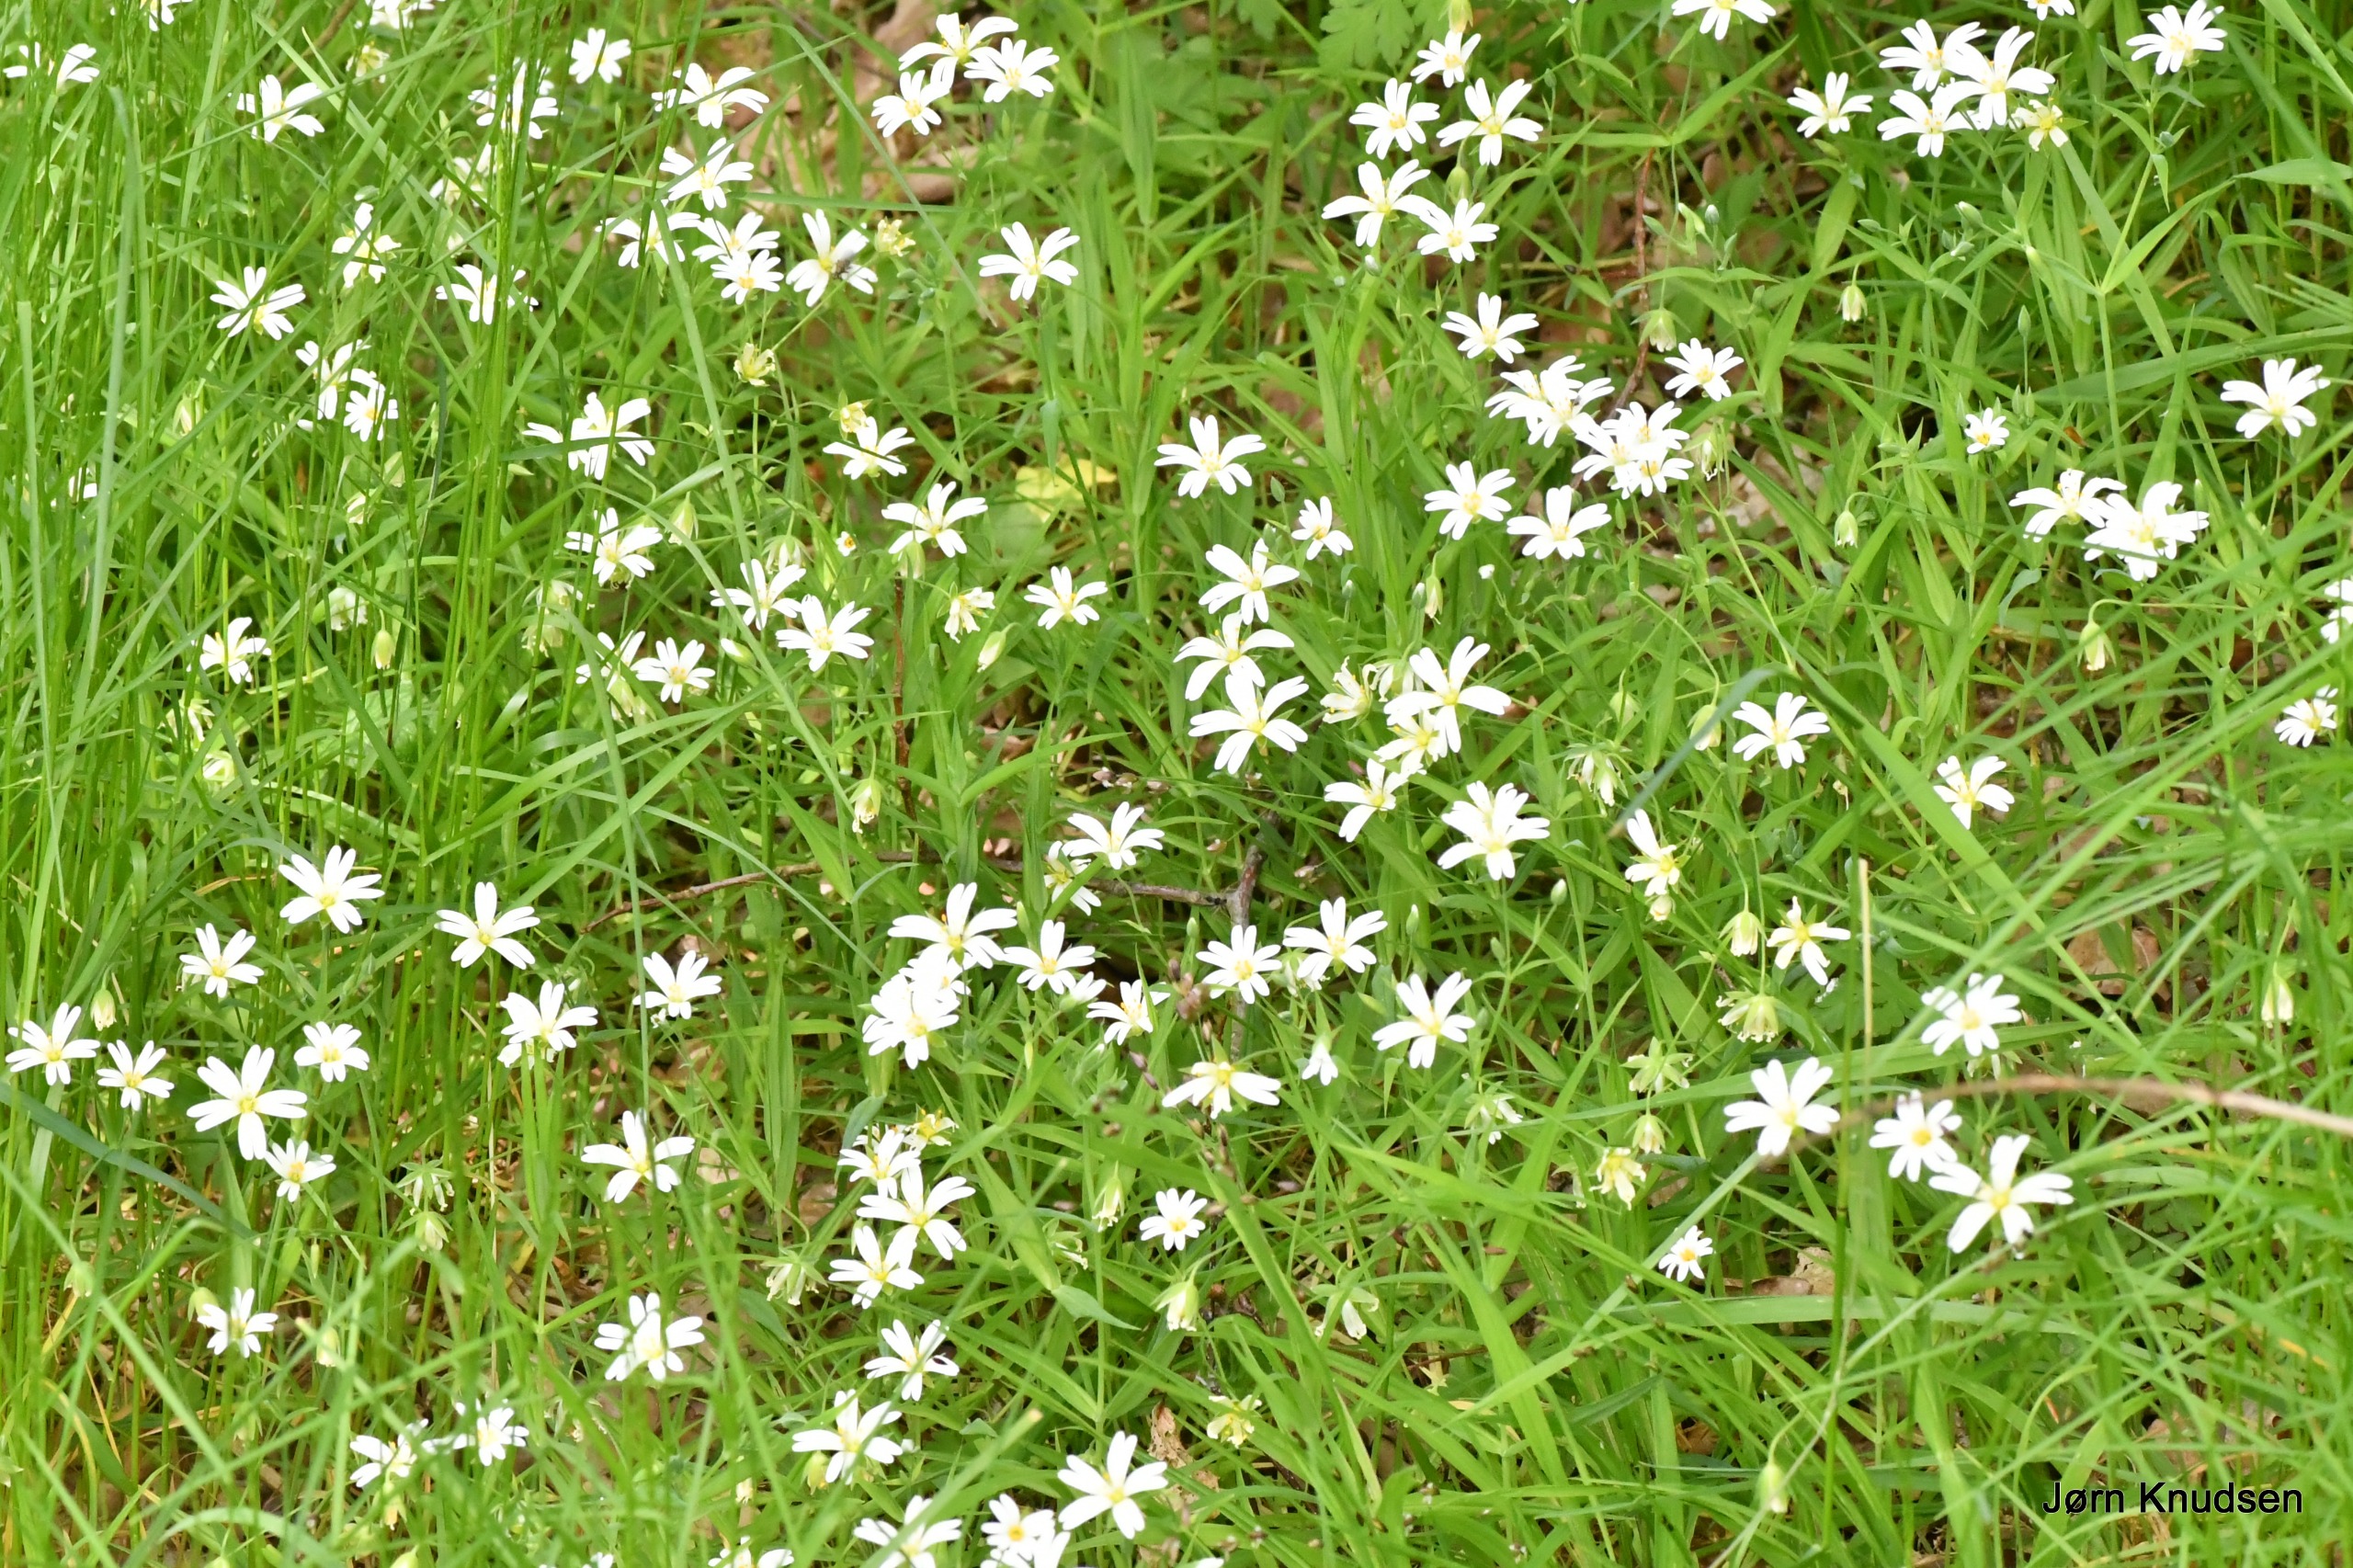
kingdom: Plantae
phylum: Tracheophyta
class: Magnoliopsida
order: Caryophyllales
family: Caryophyllaceae
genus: Rabelera
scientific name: Rabelera holostea
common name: Stor fladstjerne
